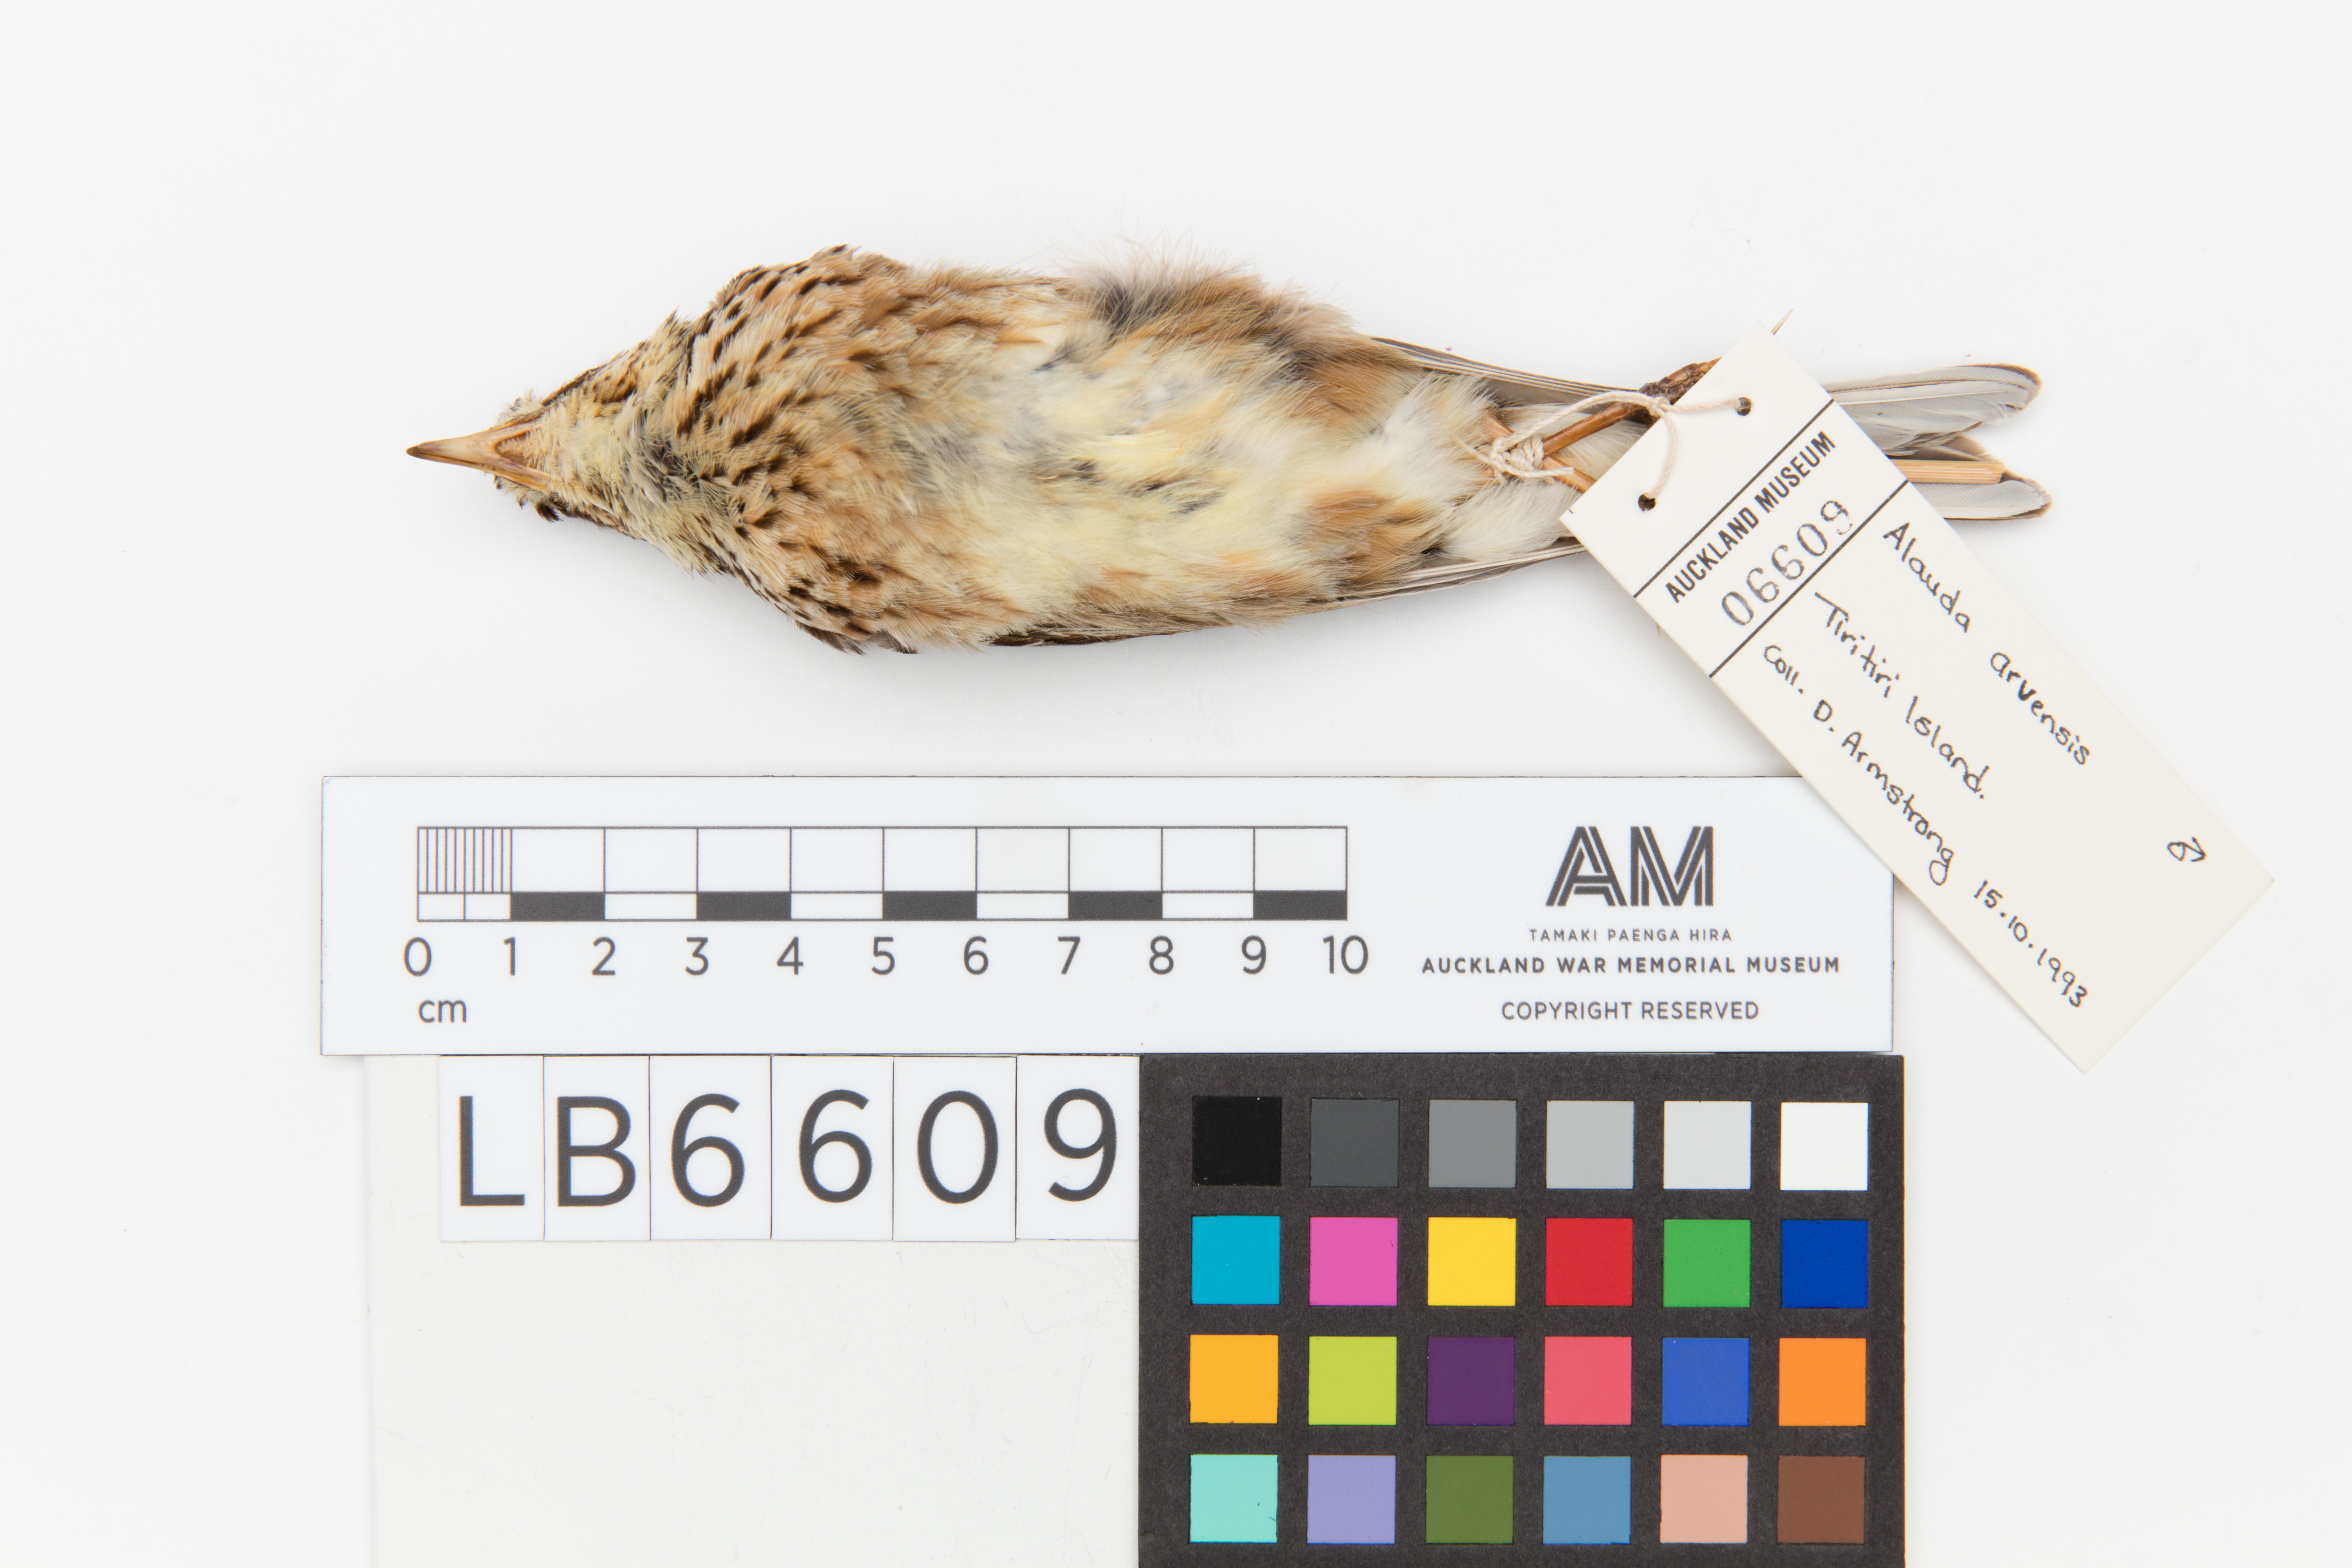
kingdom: Animalia
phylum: Chordata
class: Aves
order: Passeriformes
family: Alaudidae
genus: Alauda
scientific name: Alauda arvensis
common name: Eurasian skylark
